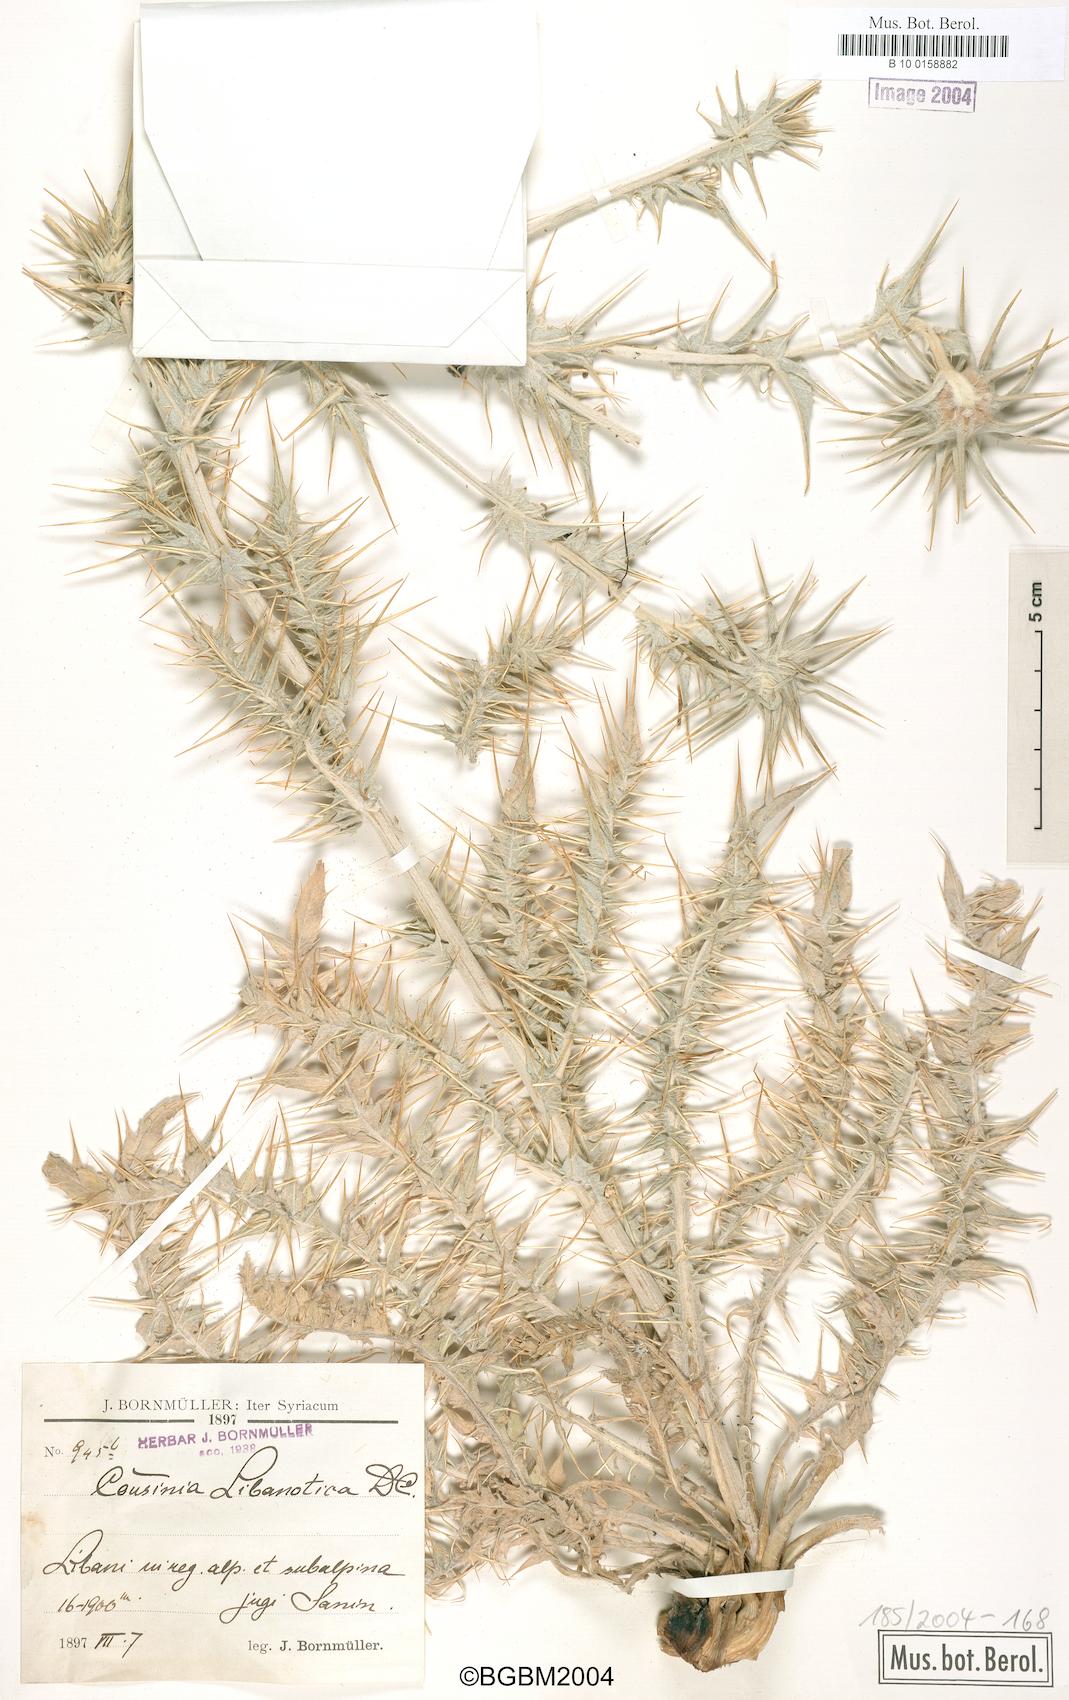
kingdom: Plantae
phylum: Tracheophyta
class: Magnoliopsida
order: Asterales
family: Asteraceae
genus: Cousinia
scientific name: Cousinia libanotica
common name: Lebanon cousinia
